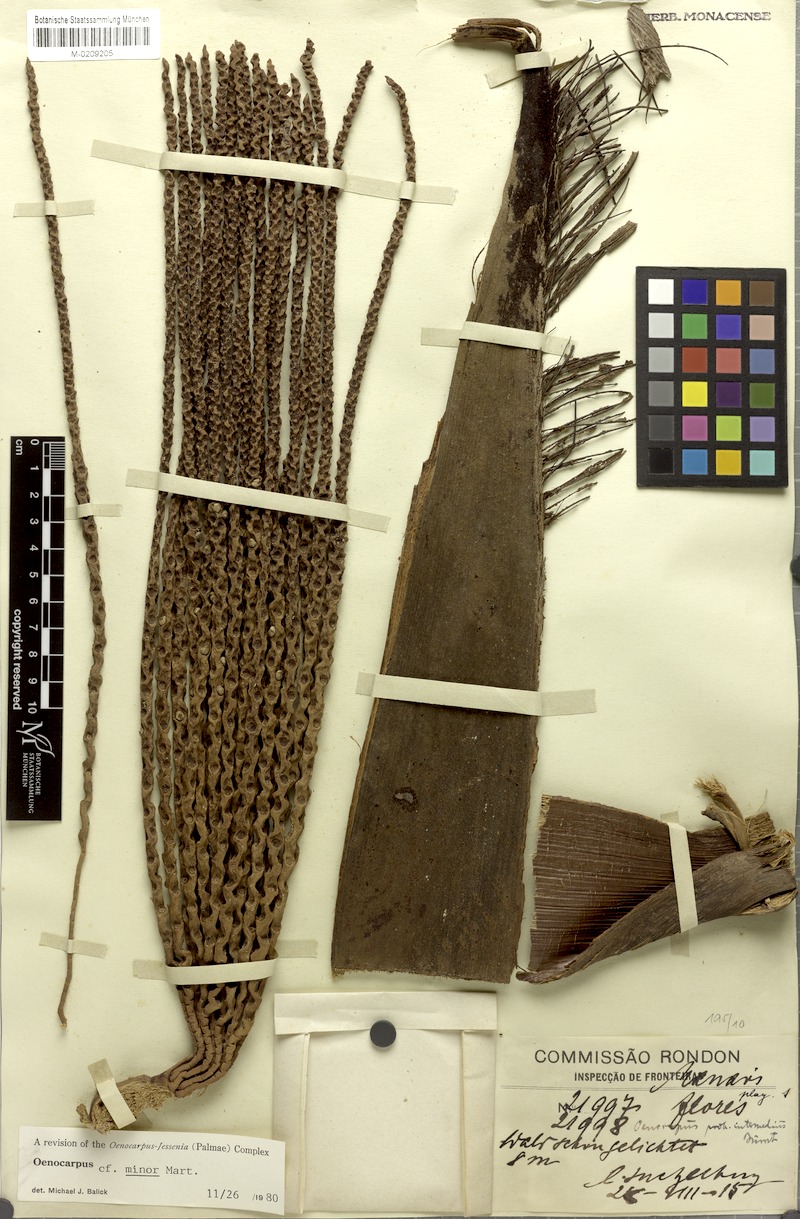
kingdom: Plantae
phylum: Tracheophyta
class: Liliopsida
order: Arecales
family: Arecaceae
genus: Oenocarpus
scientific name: Oenocarpus minor
